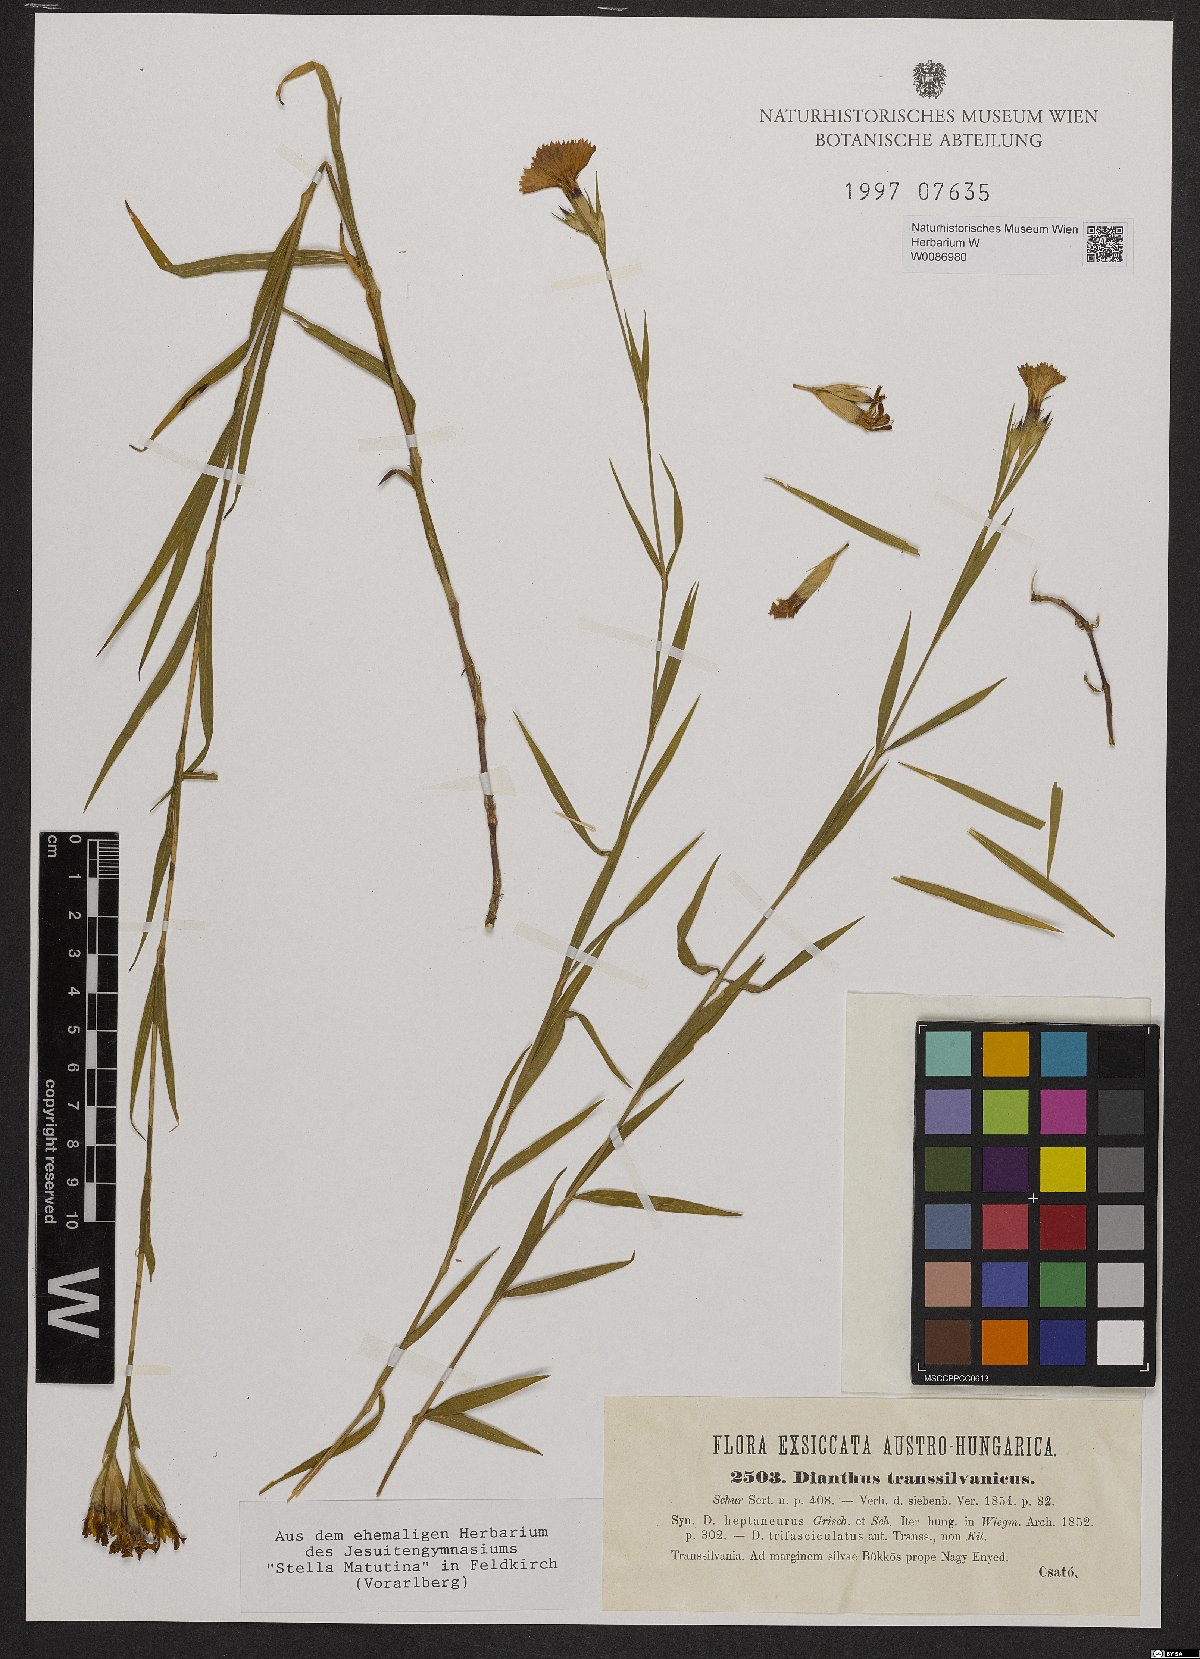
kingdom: Plantae
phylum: Tracheophyta
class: Magnoliopsida
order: Caryophyllales
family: Caryophyllaceae
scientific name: Caryophyllaceae
